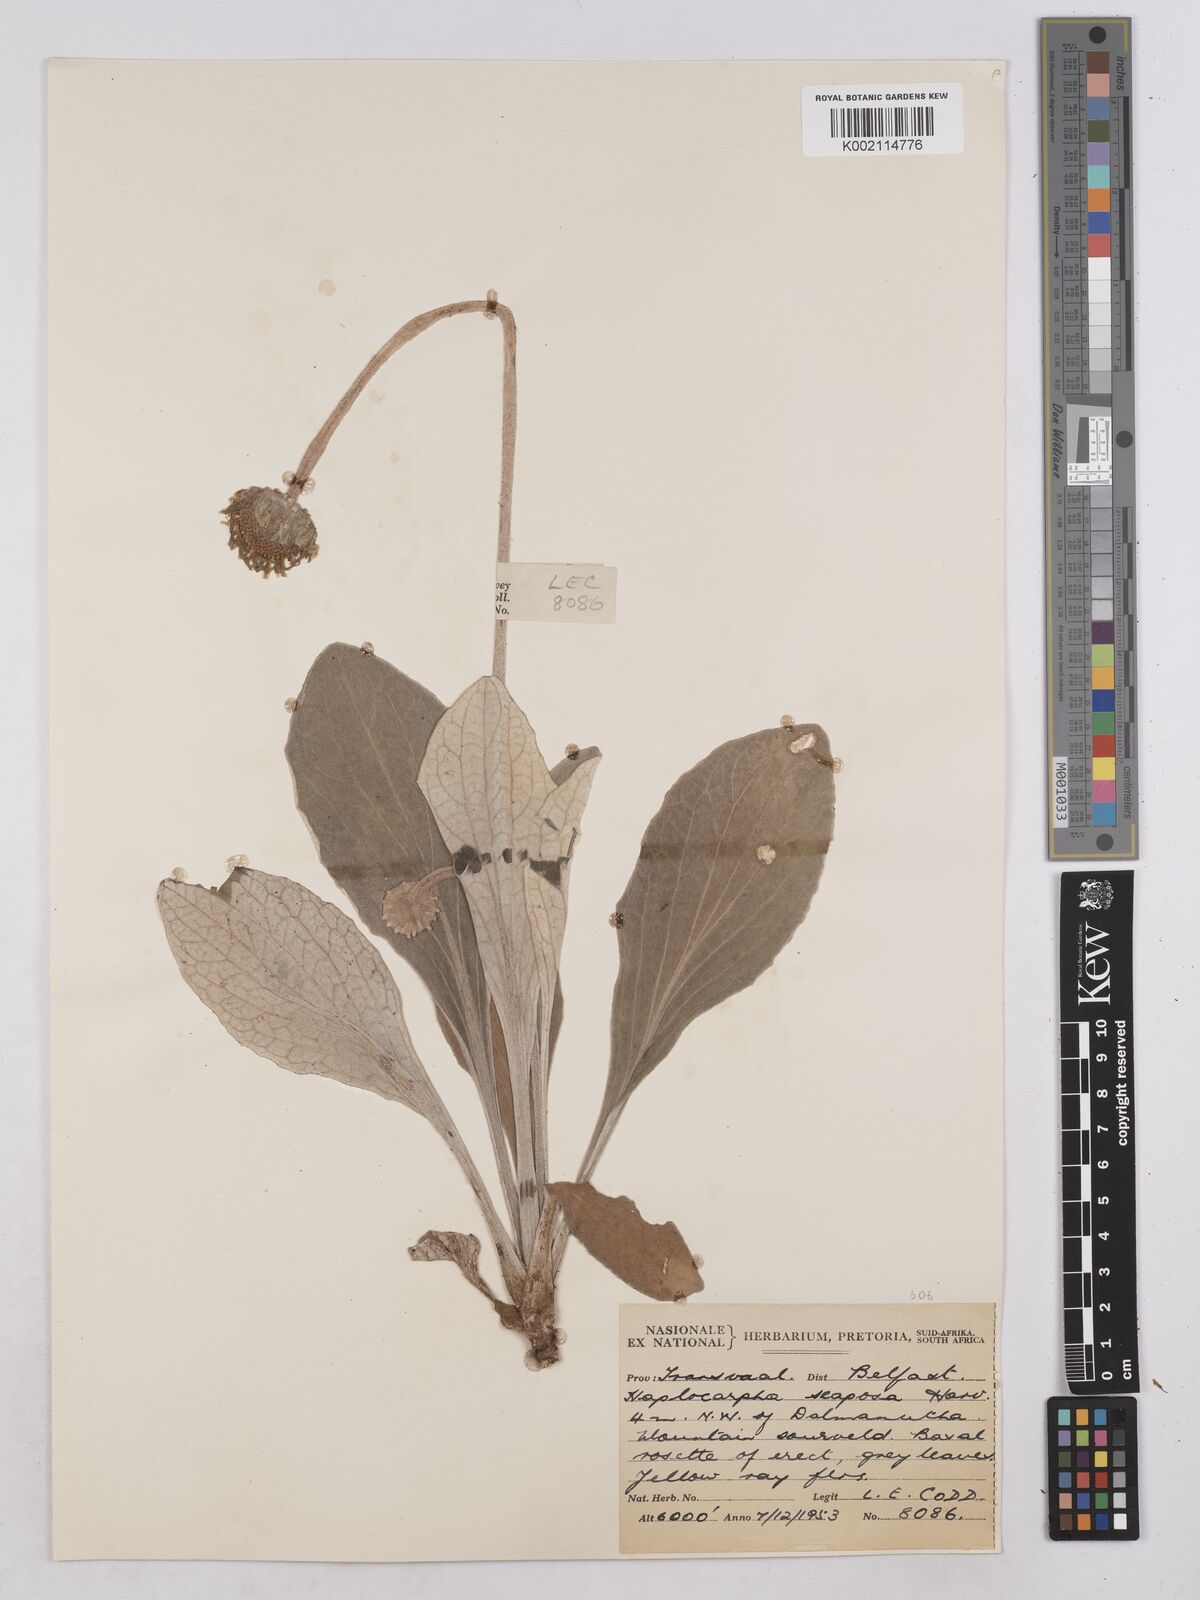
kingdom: Plantae
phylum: Tracheophyta
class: Magnoliopsida
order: Asterales
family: Asteraceae
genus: Haplocarpha
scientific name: Haplocarpha scaposa
